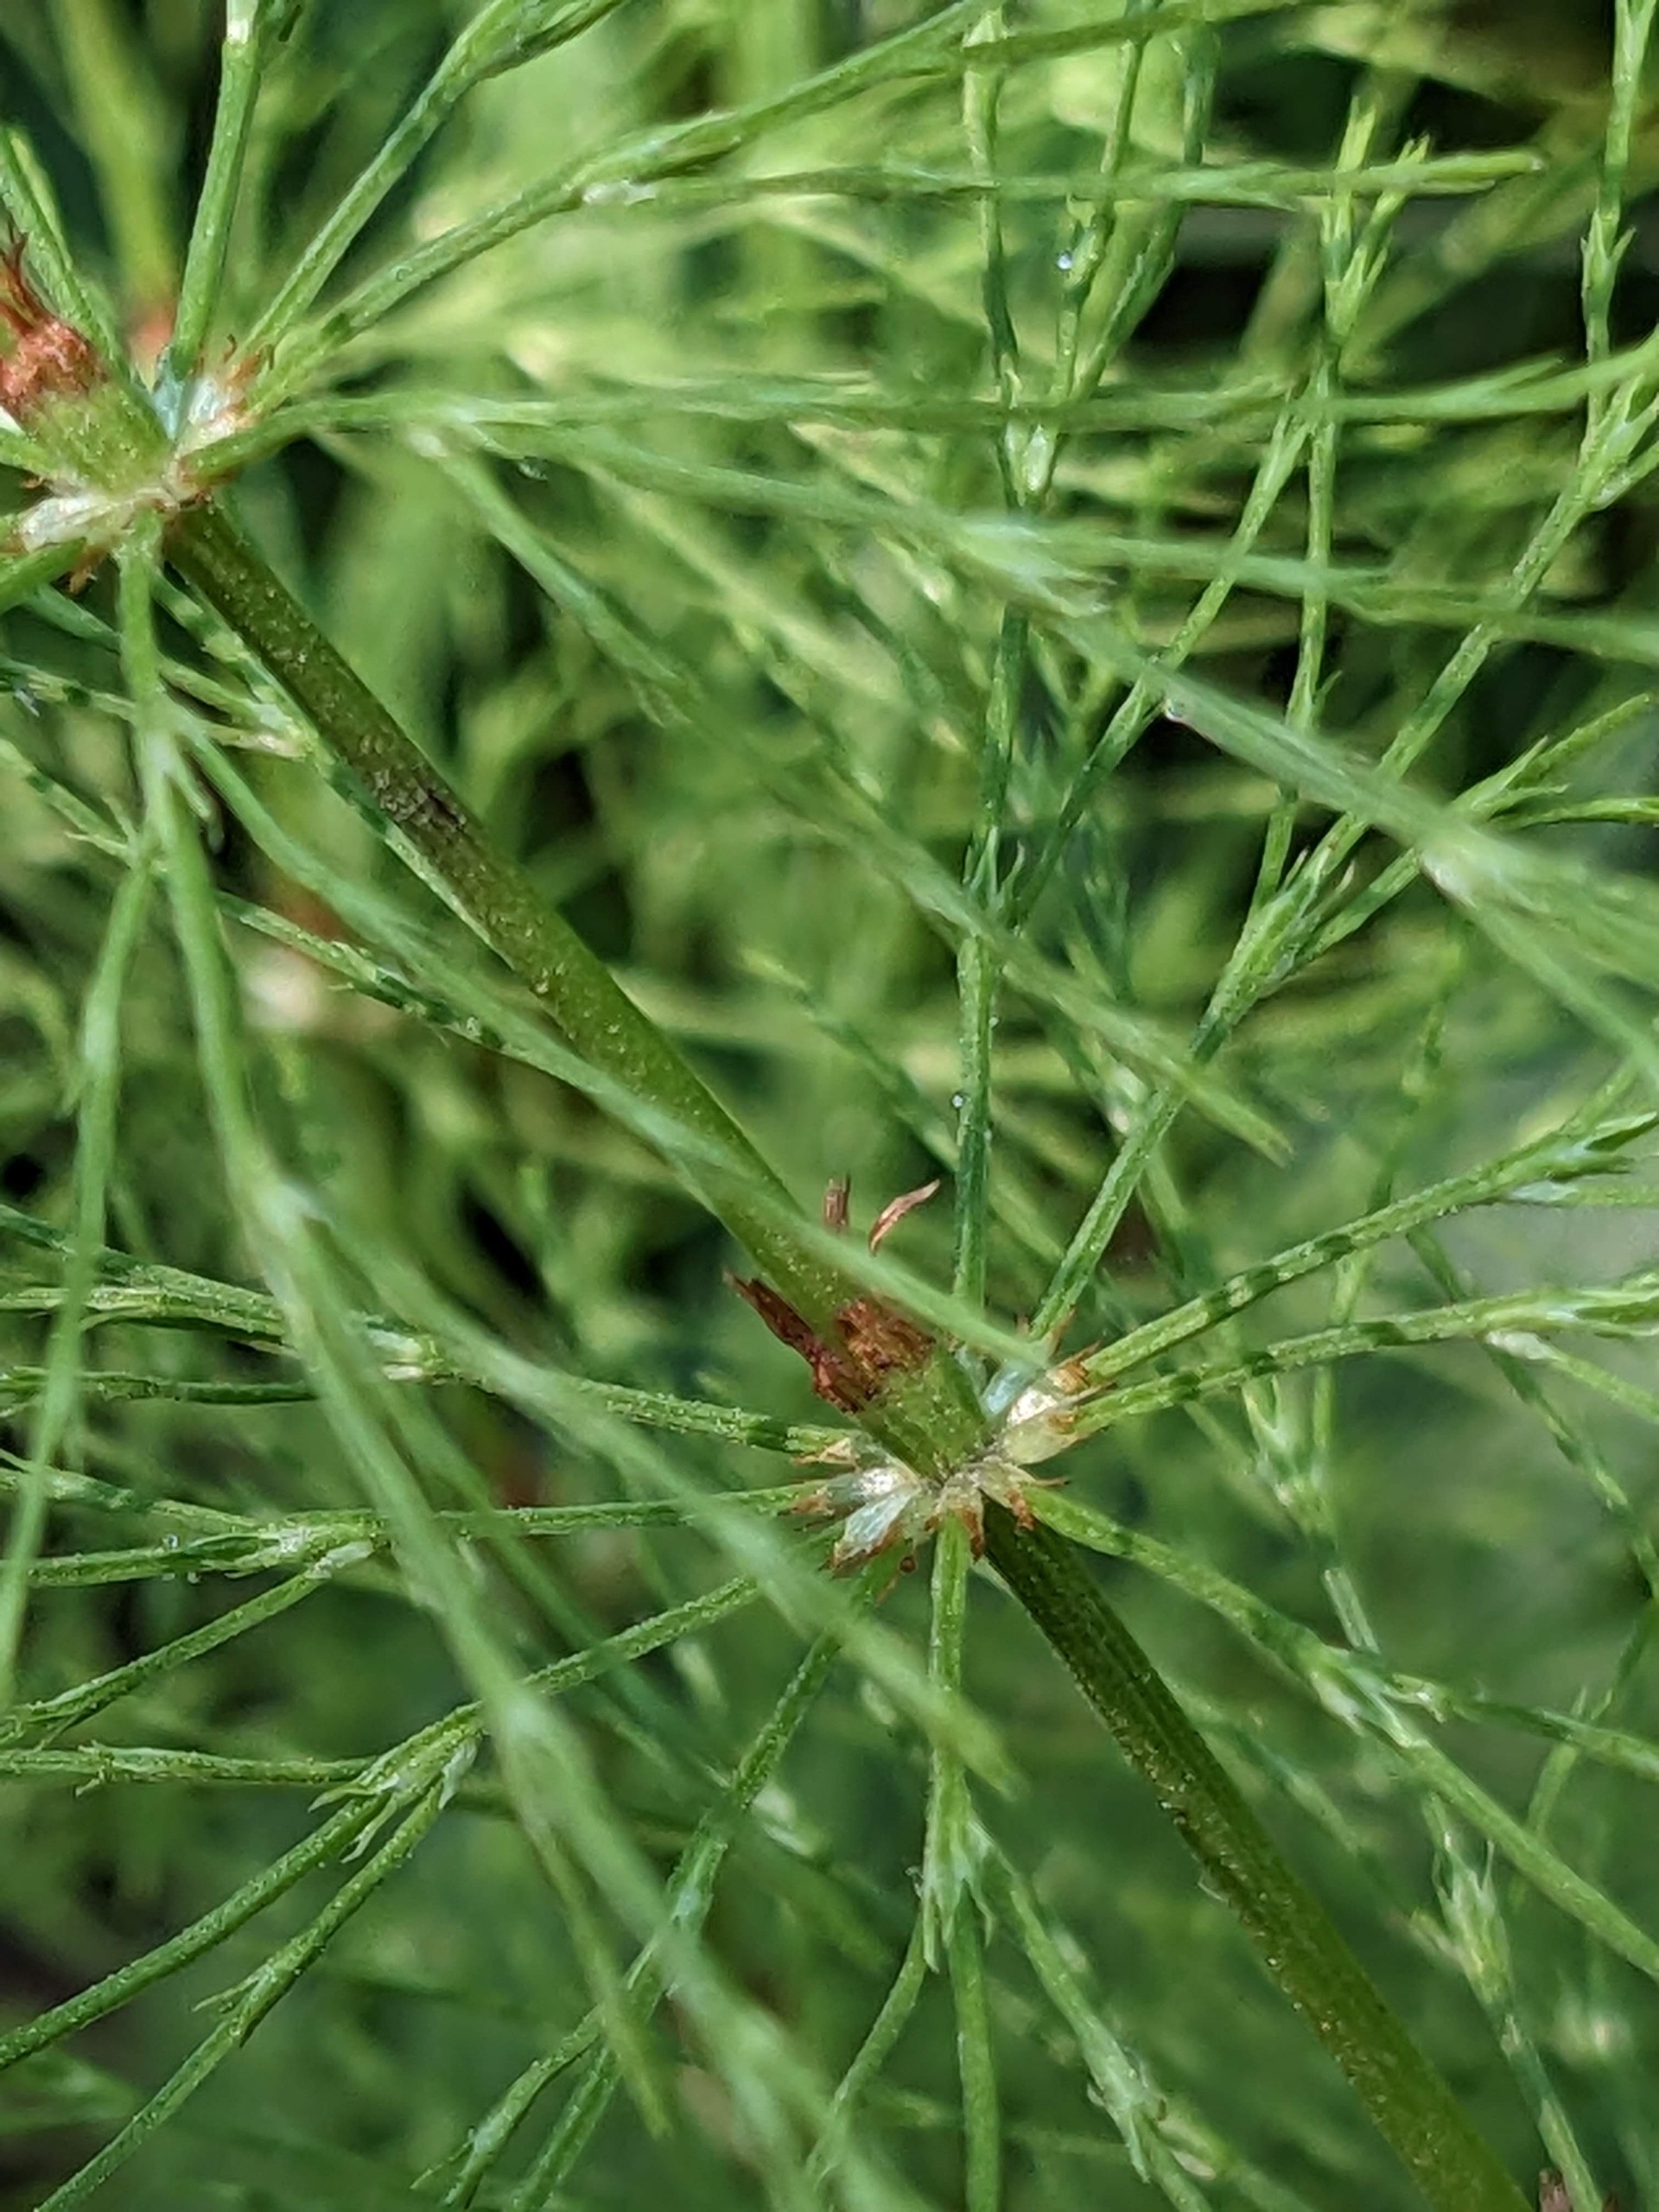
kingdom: Plantae
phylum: Tracheophyta
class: Polypodiopsida
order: Equisetales
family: Equisetaceae
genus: Equisetum
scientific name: Equisetum sylvaticum
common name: Skov-padderok
